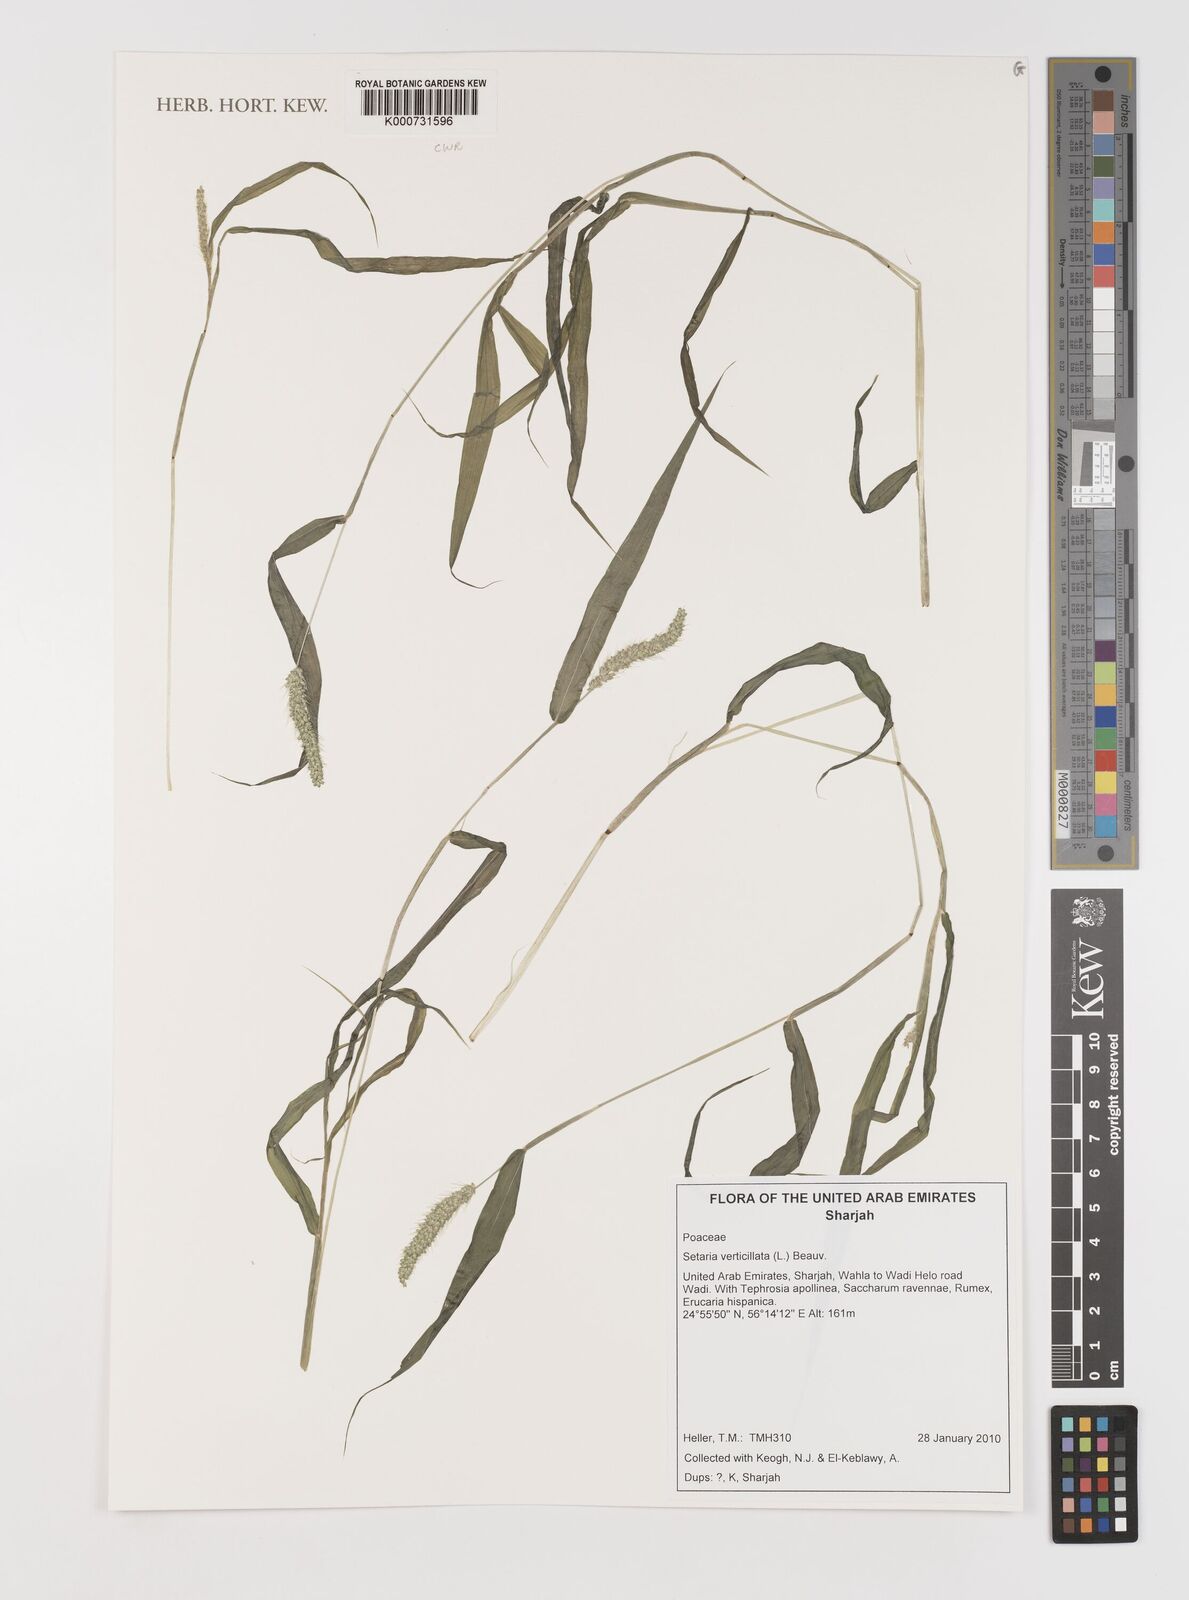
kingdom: Plantae
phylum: Tracheophyta
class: Liliopsida
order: Poales
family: Poaceae
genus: Setaria
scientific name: Setaria verticillata
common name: Hooked bristlegrass
